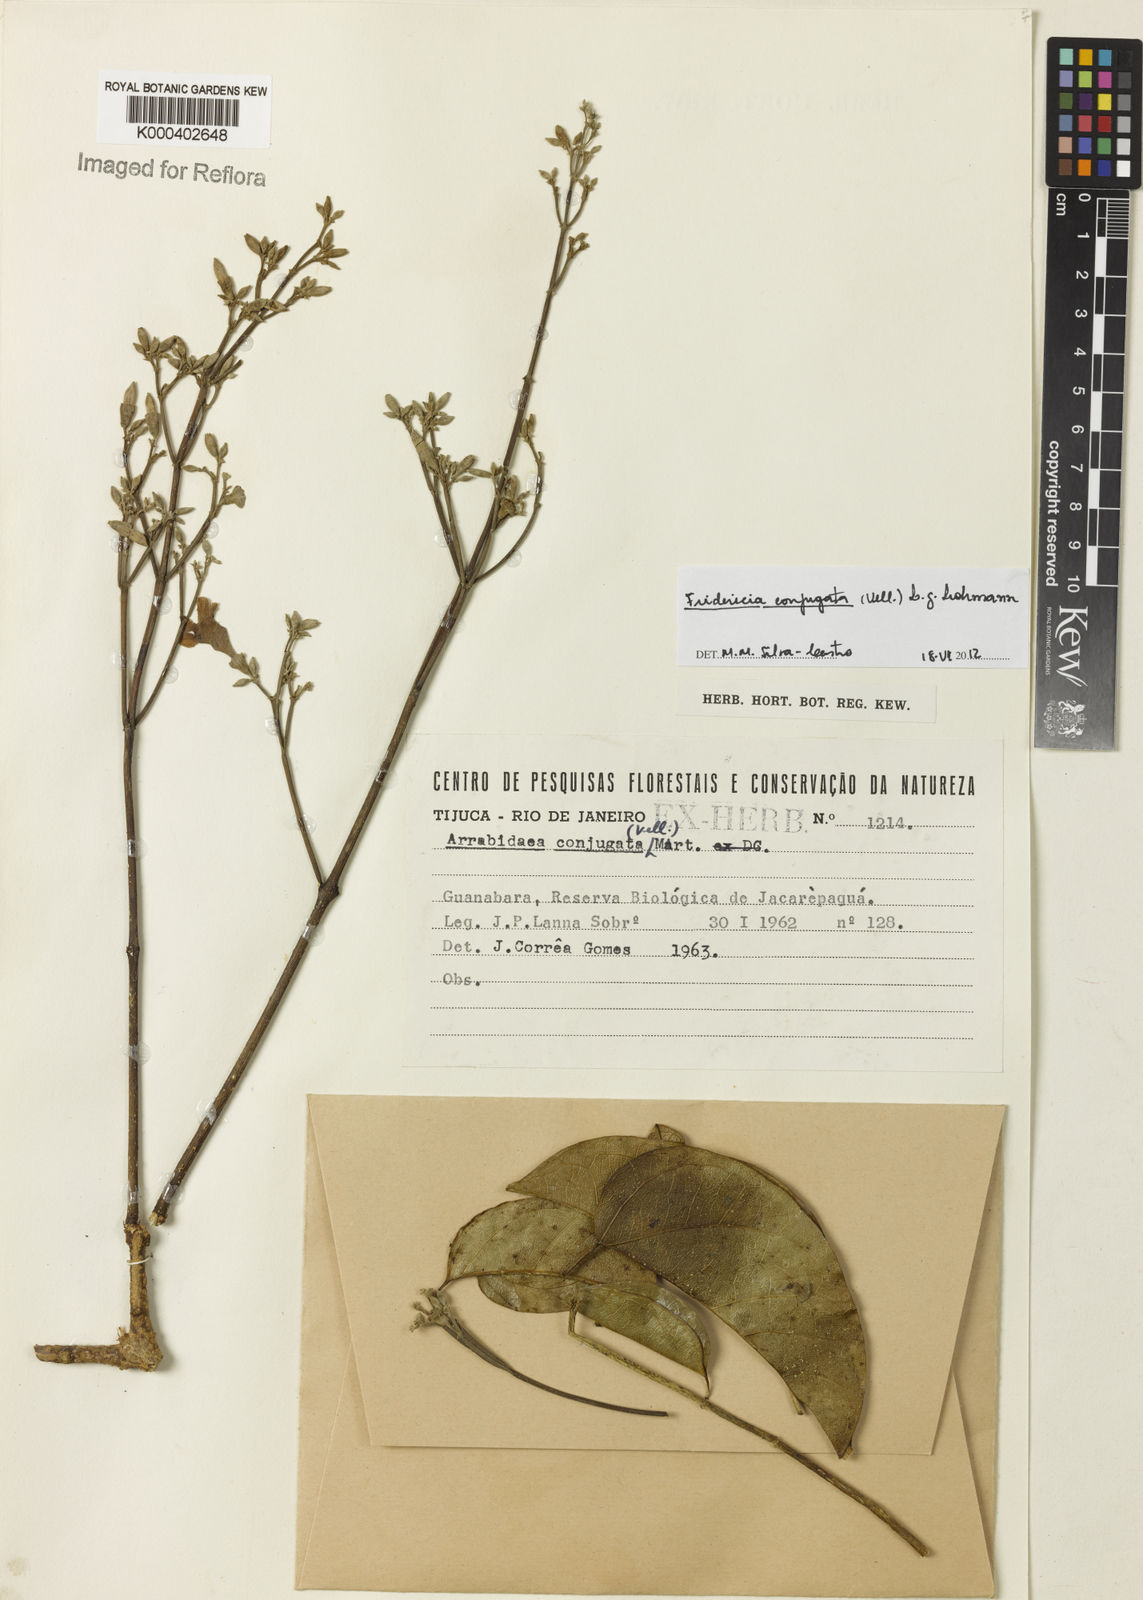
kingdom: Plantae
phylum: Tracheophyta
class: Magnoliopsida
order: Lamiales
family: Bignoniaceae
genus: Fridericia
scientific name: Fridericia conjugata
